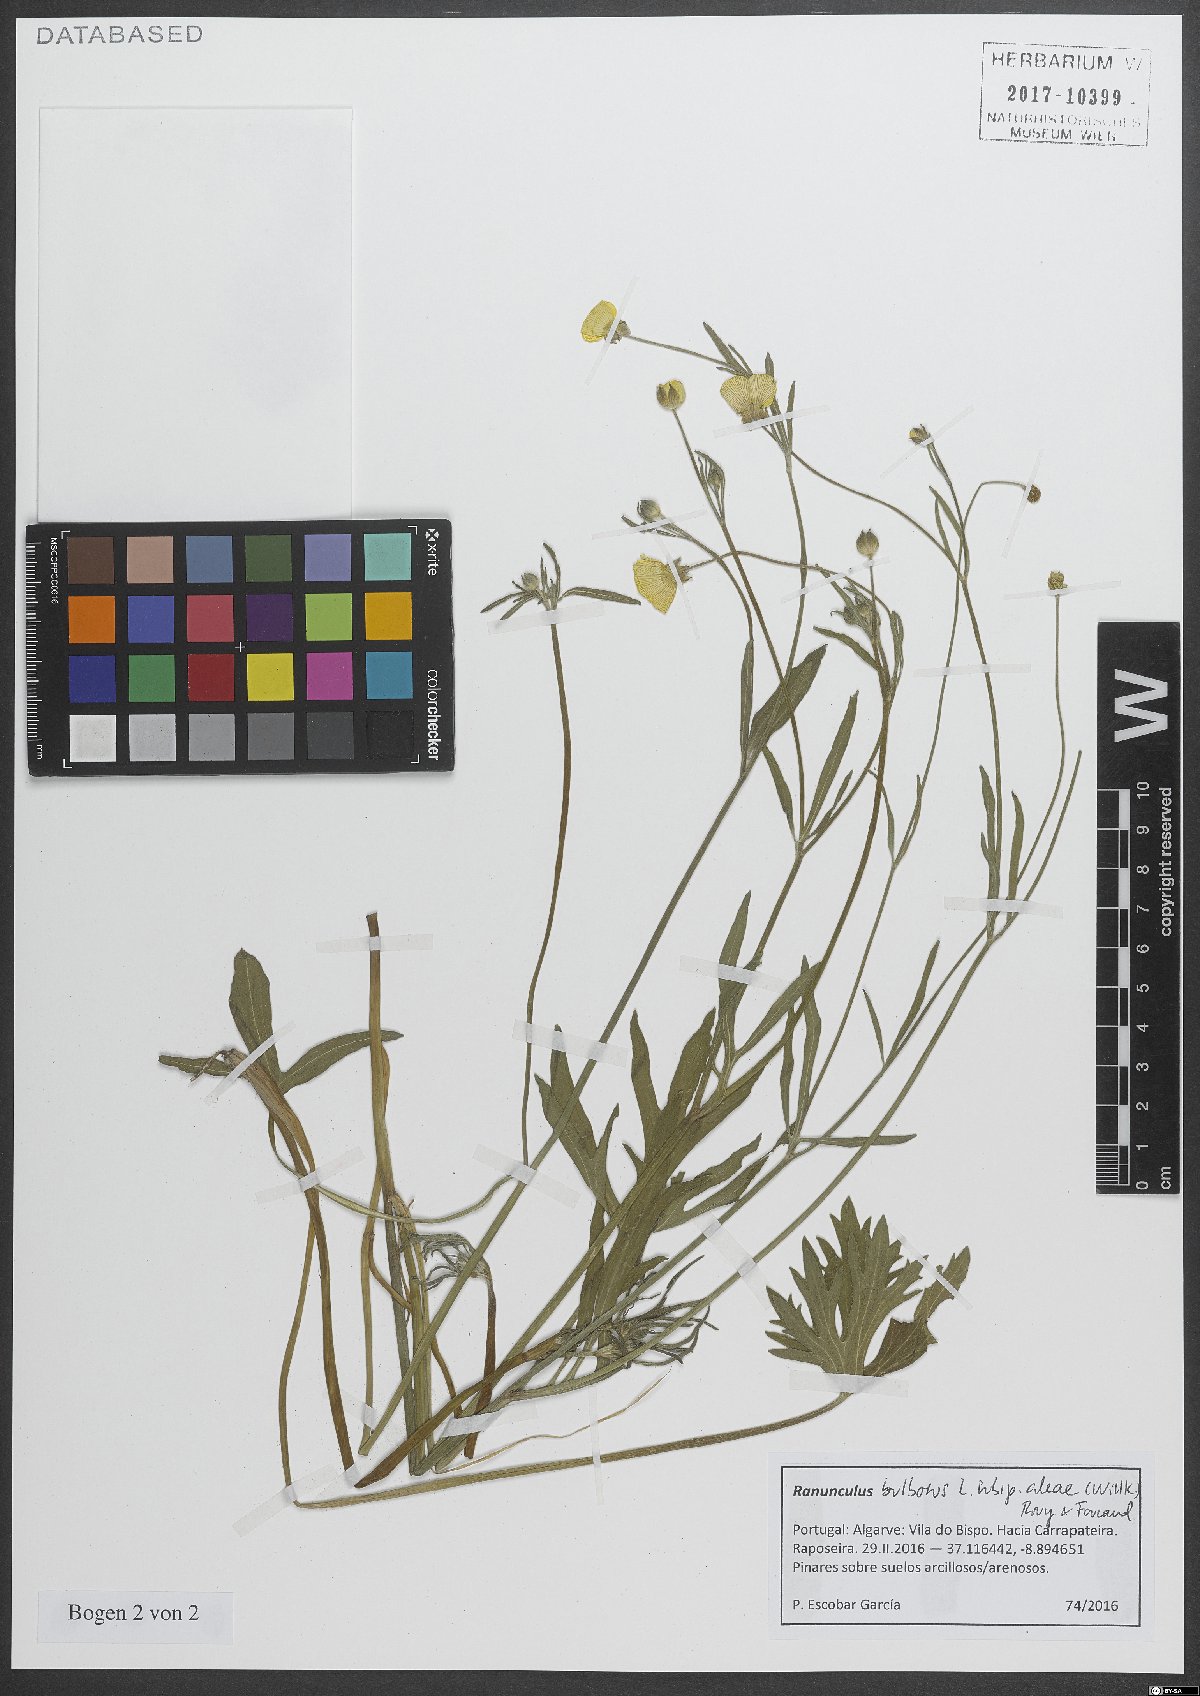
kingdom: Plantae
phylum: Tracheophyta
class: Magnoliopsida
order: Ranunculales
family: Ranunculaceae
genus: Ranunculus
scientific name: Ranunculus neapolitanus
